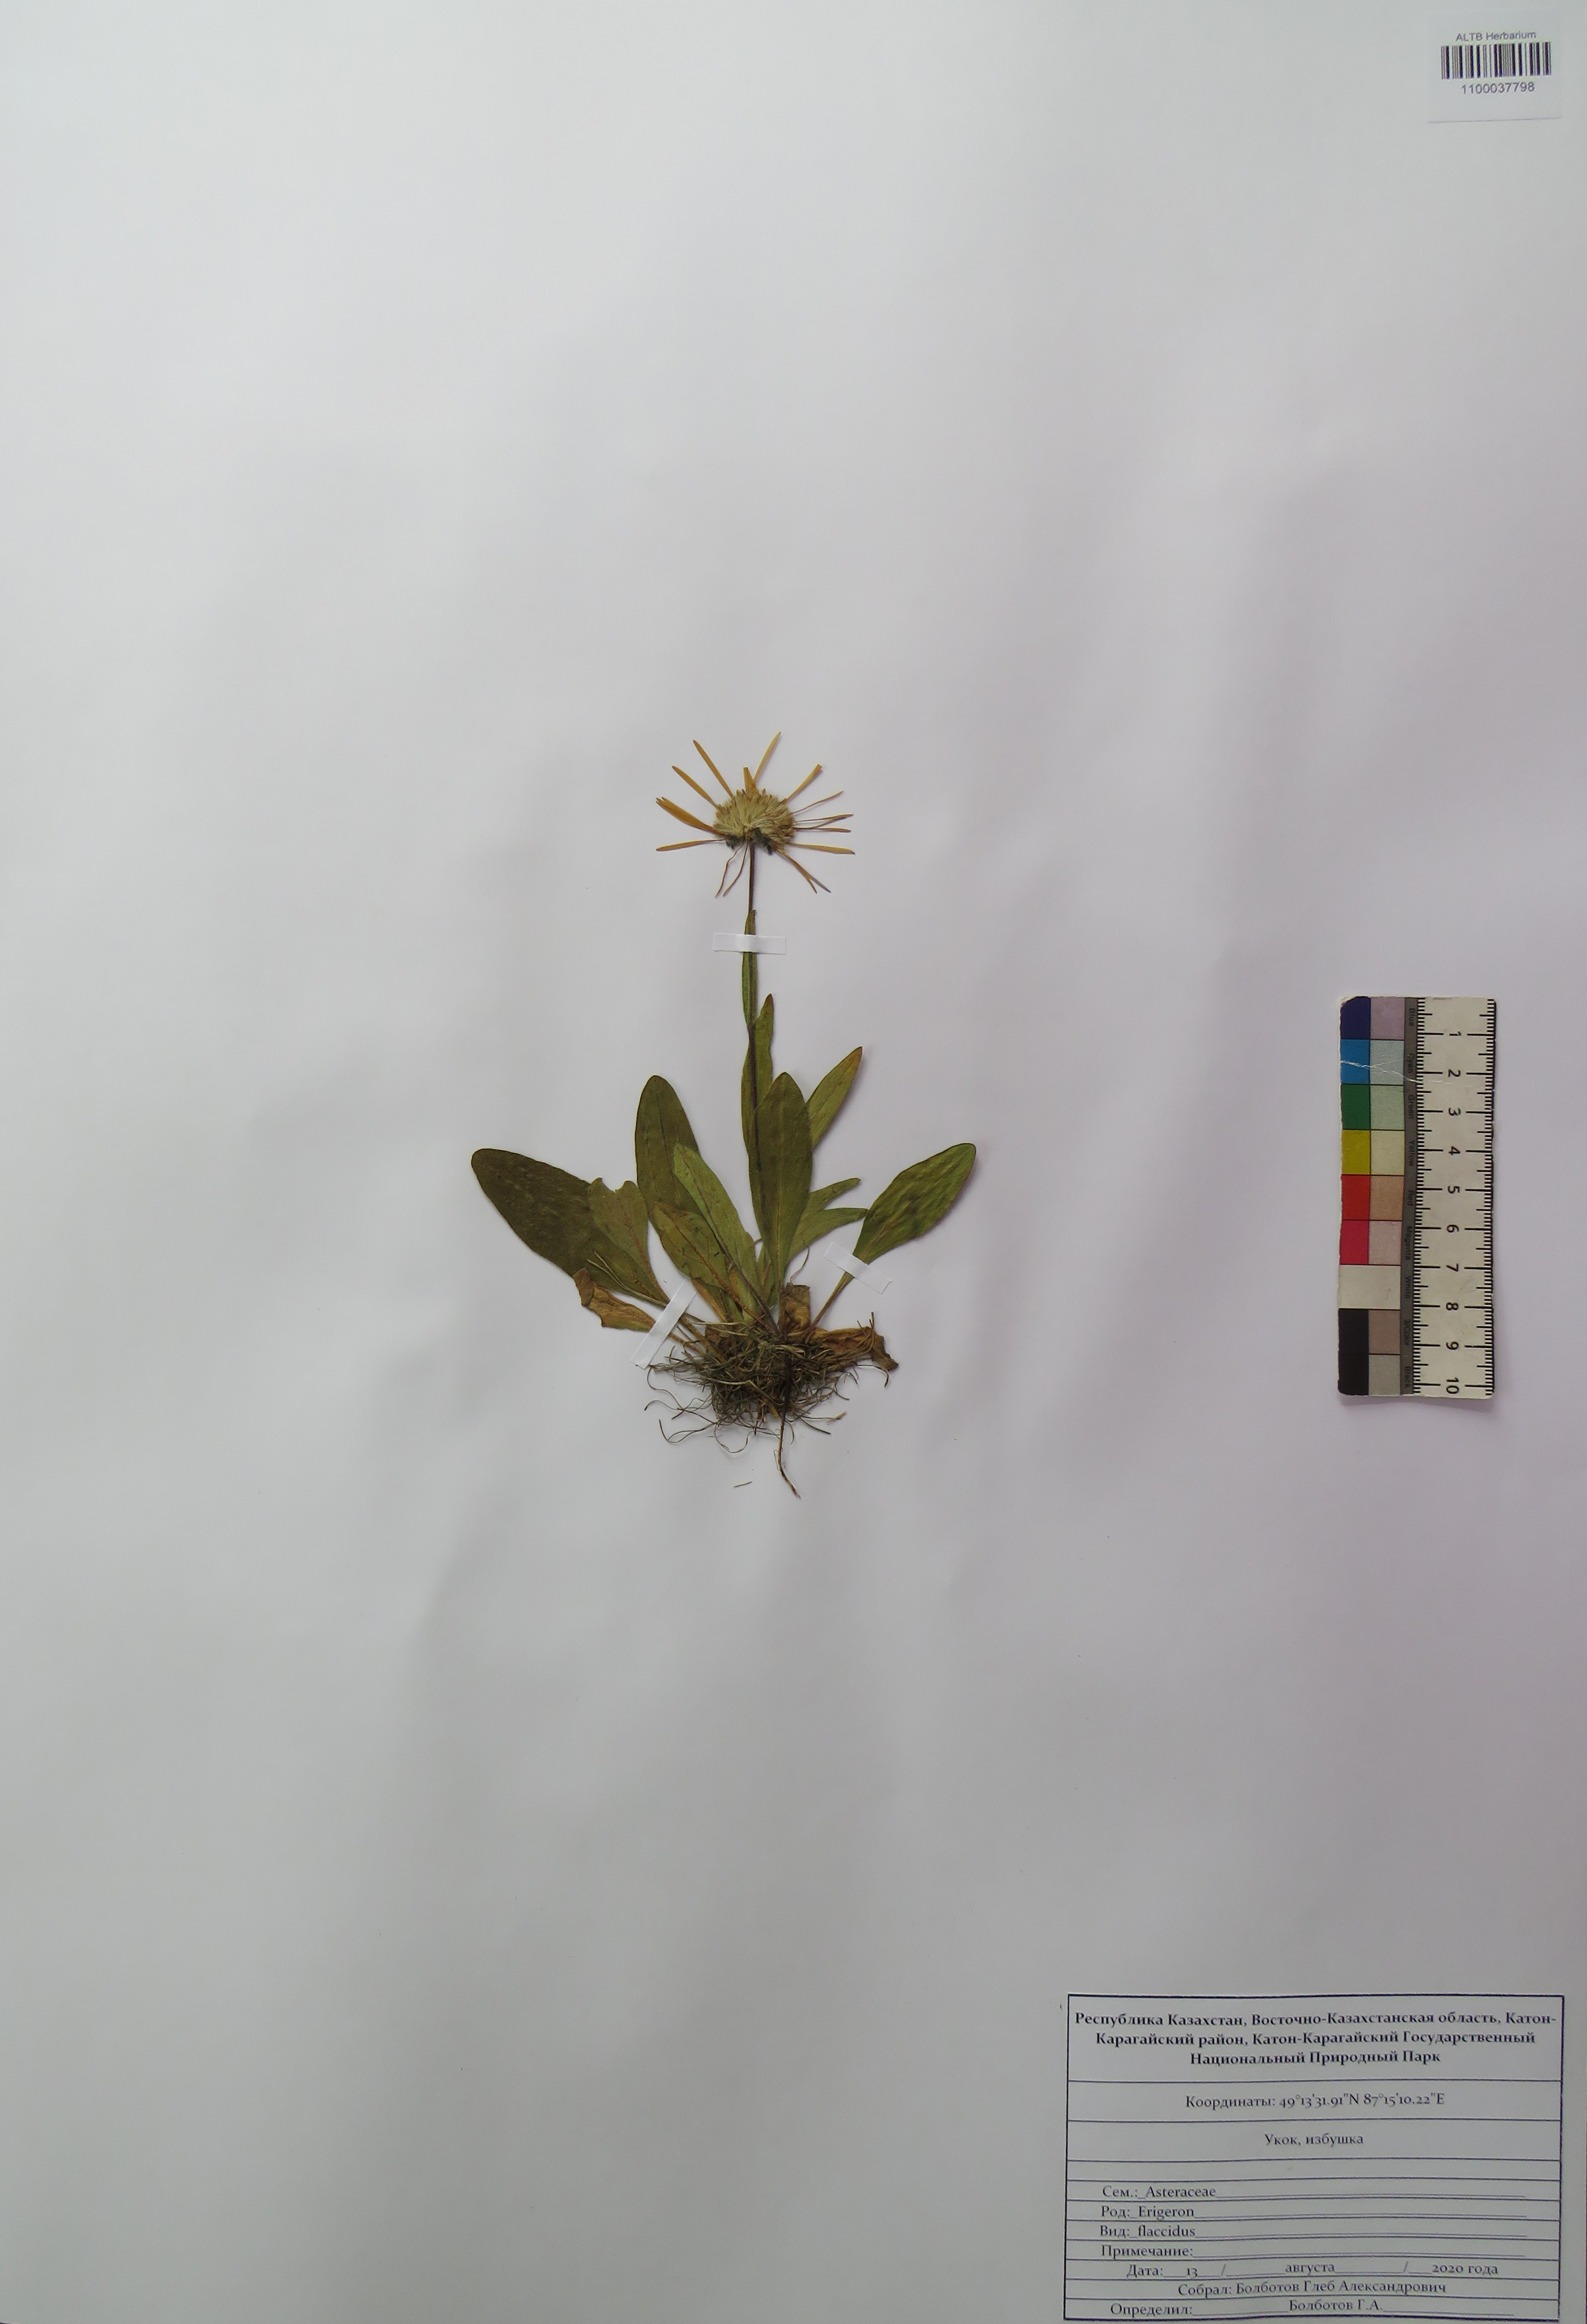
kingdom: Plantae
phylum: Tracheophyta
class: Magnoliopsida
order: Asterales
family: Asteraceae
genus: Tibetiodes
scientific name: Tibetiodes flaccida
